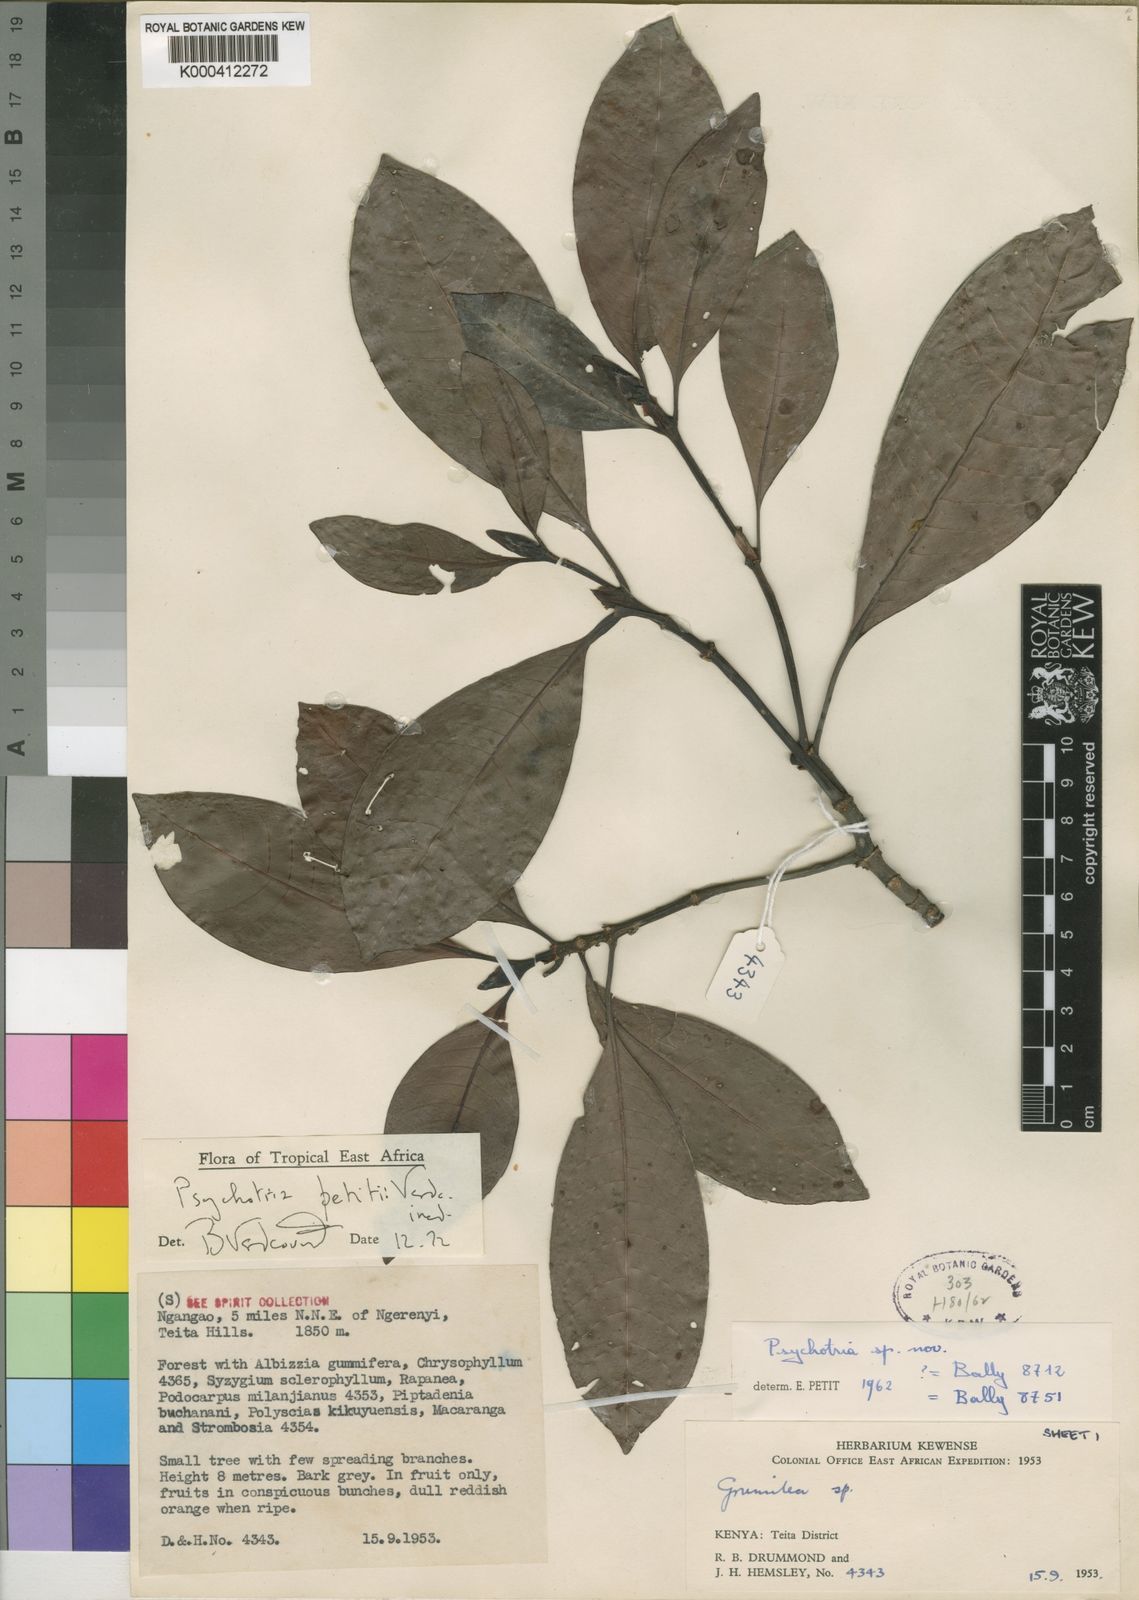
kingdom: Plantae
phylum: Tracheophyta
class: Magnoliopsida
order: Gentianales
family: Rubiaceae
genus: Psychotria
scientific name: Psychotria petitii
